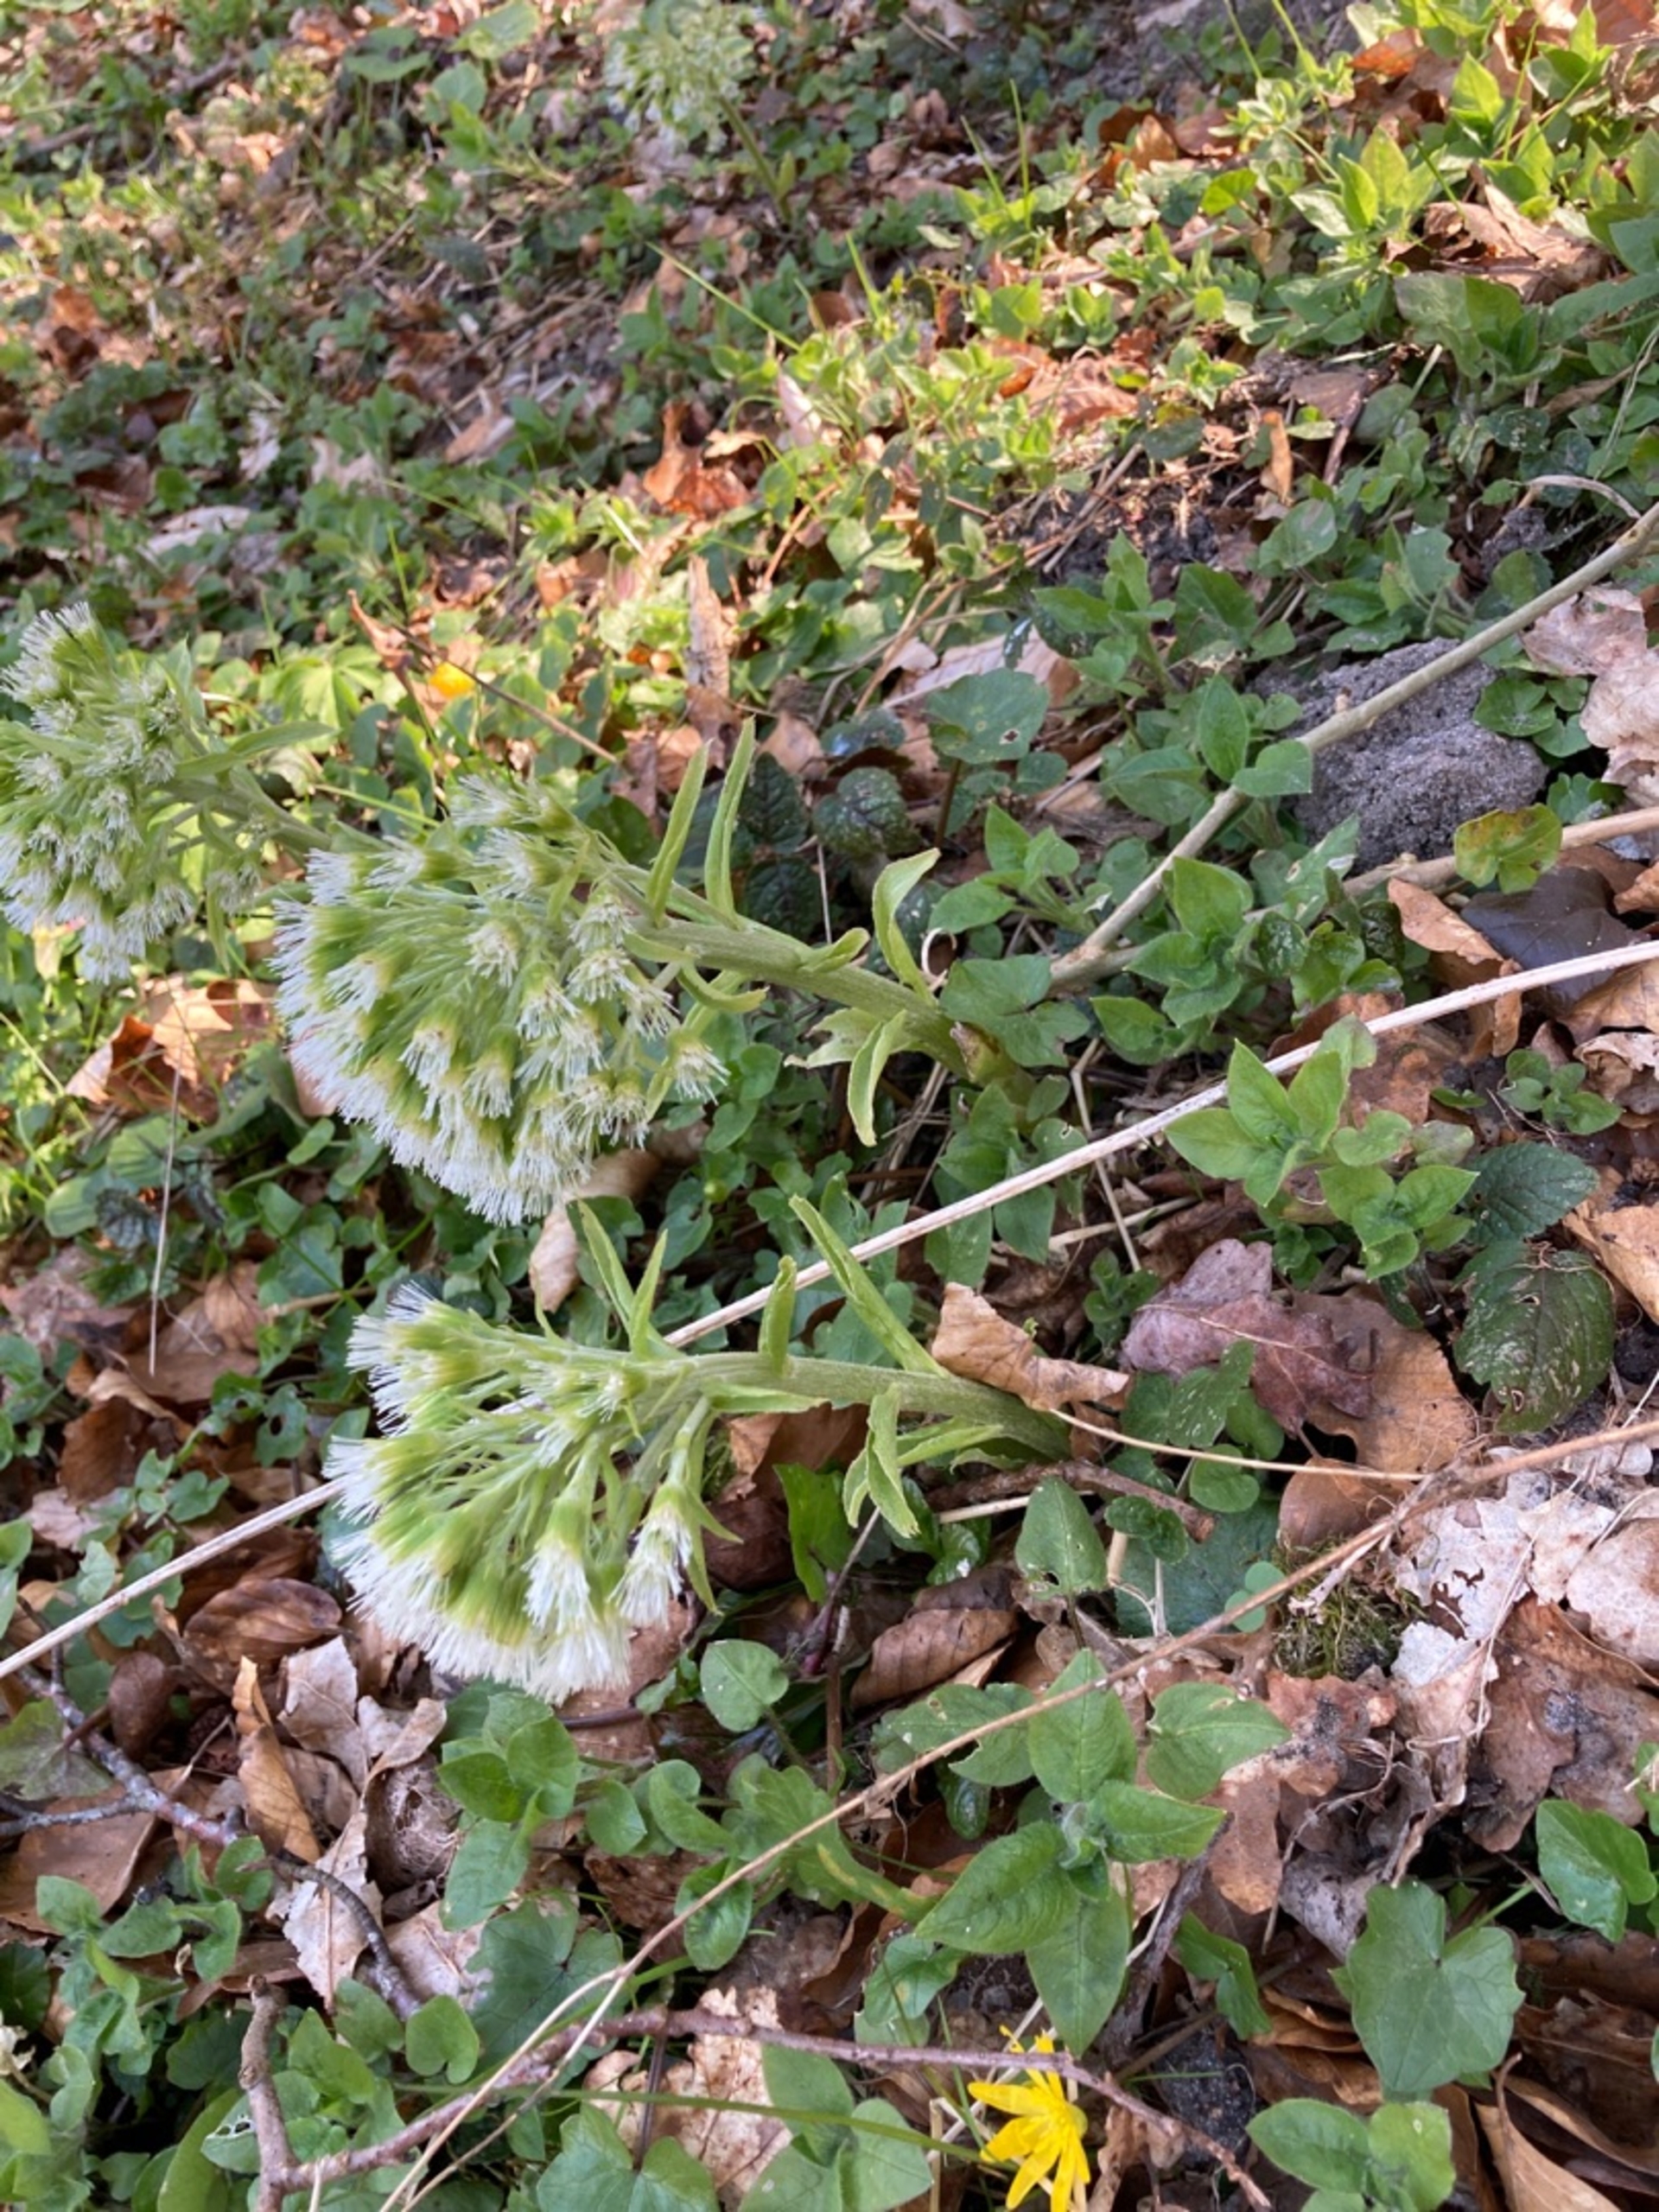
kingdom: Plantae
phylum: Tracheophyta
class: Magnoliopsida
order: Asterales
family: Asteraceae
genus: Petasites
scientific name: Petasites albus
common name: Hvid hestehov
